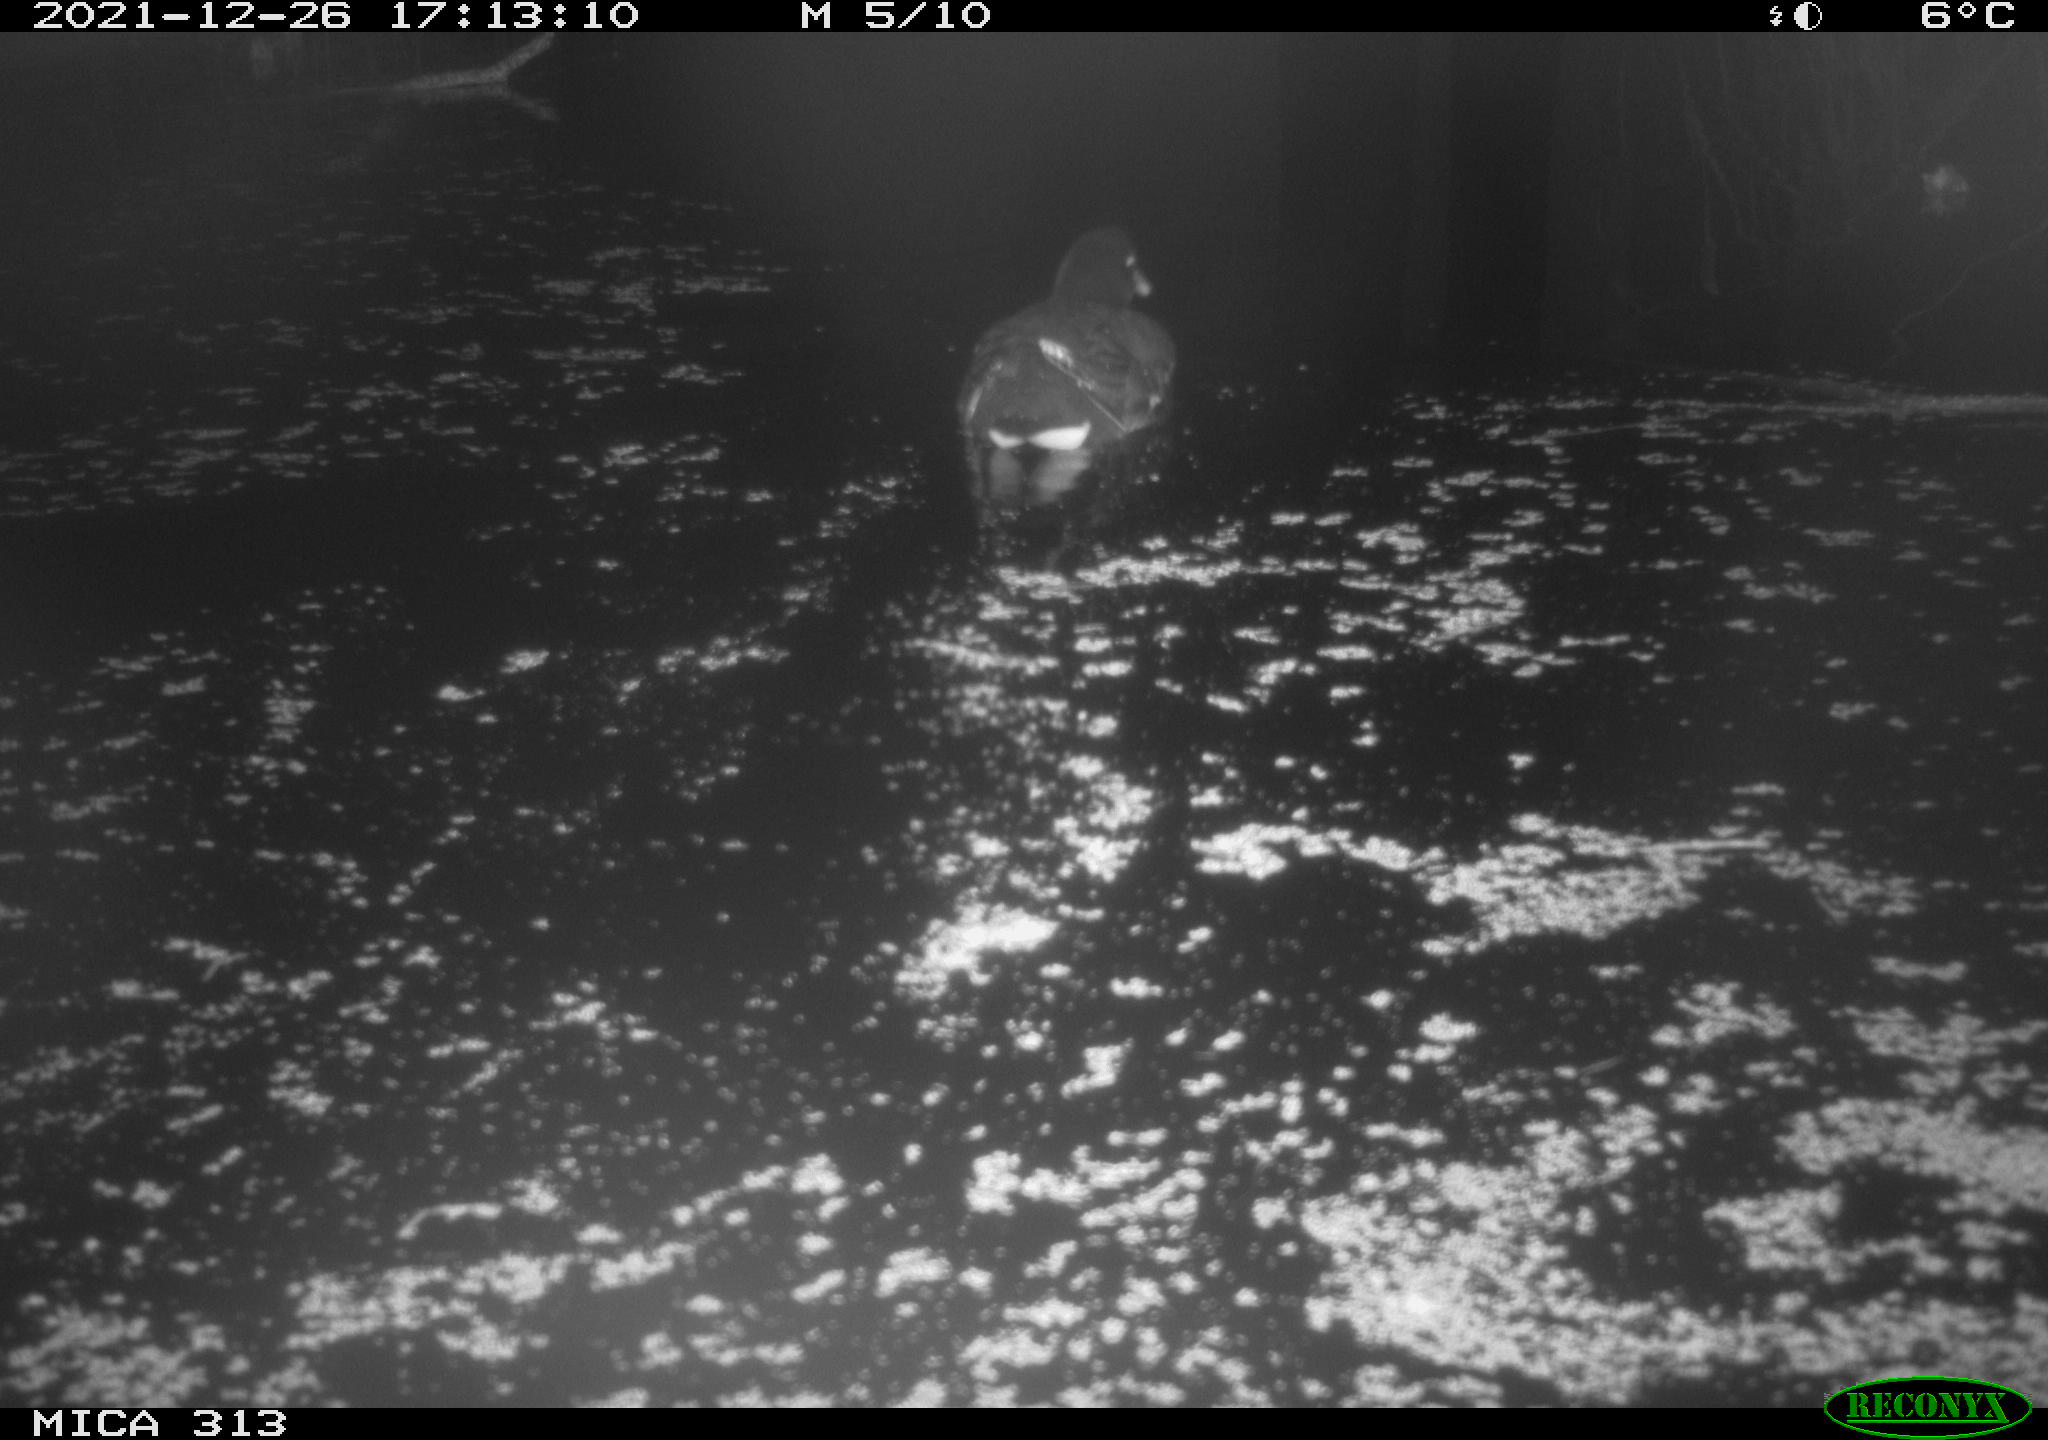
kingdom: Animalia
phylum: Chordata
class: Aves
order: Gruiformes
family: Rallidae
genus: Gallinula
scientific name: Gallinula chloropus
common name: Common moorhen
